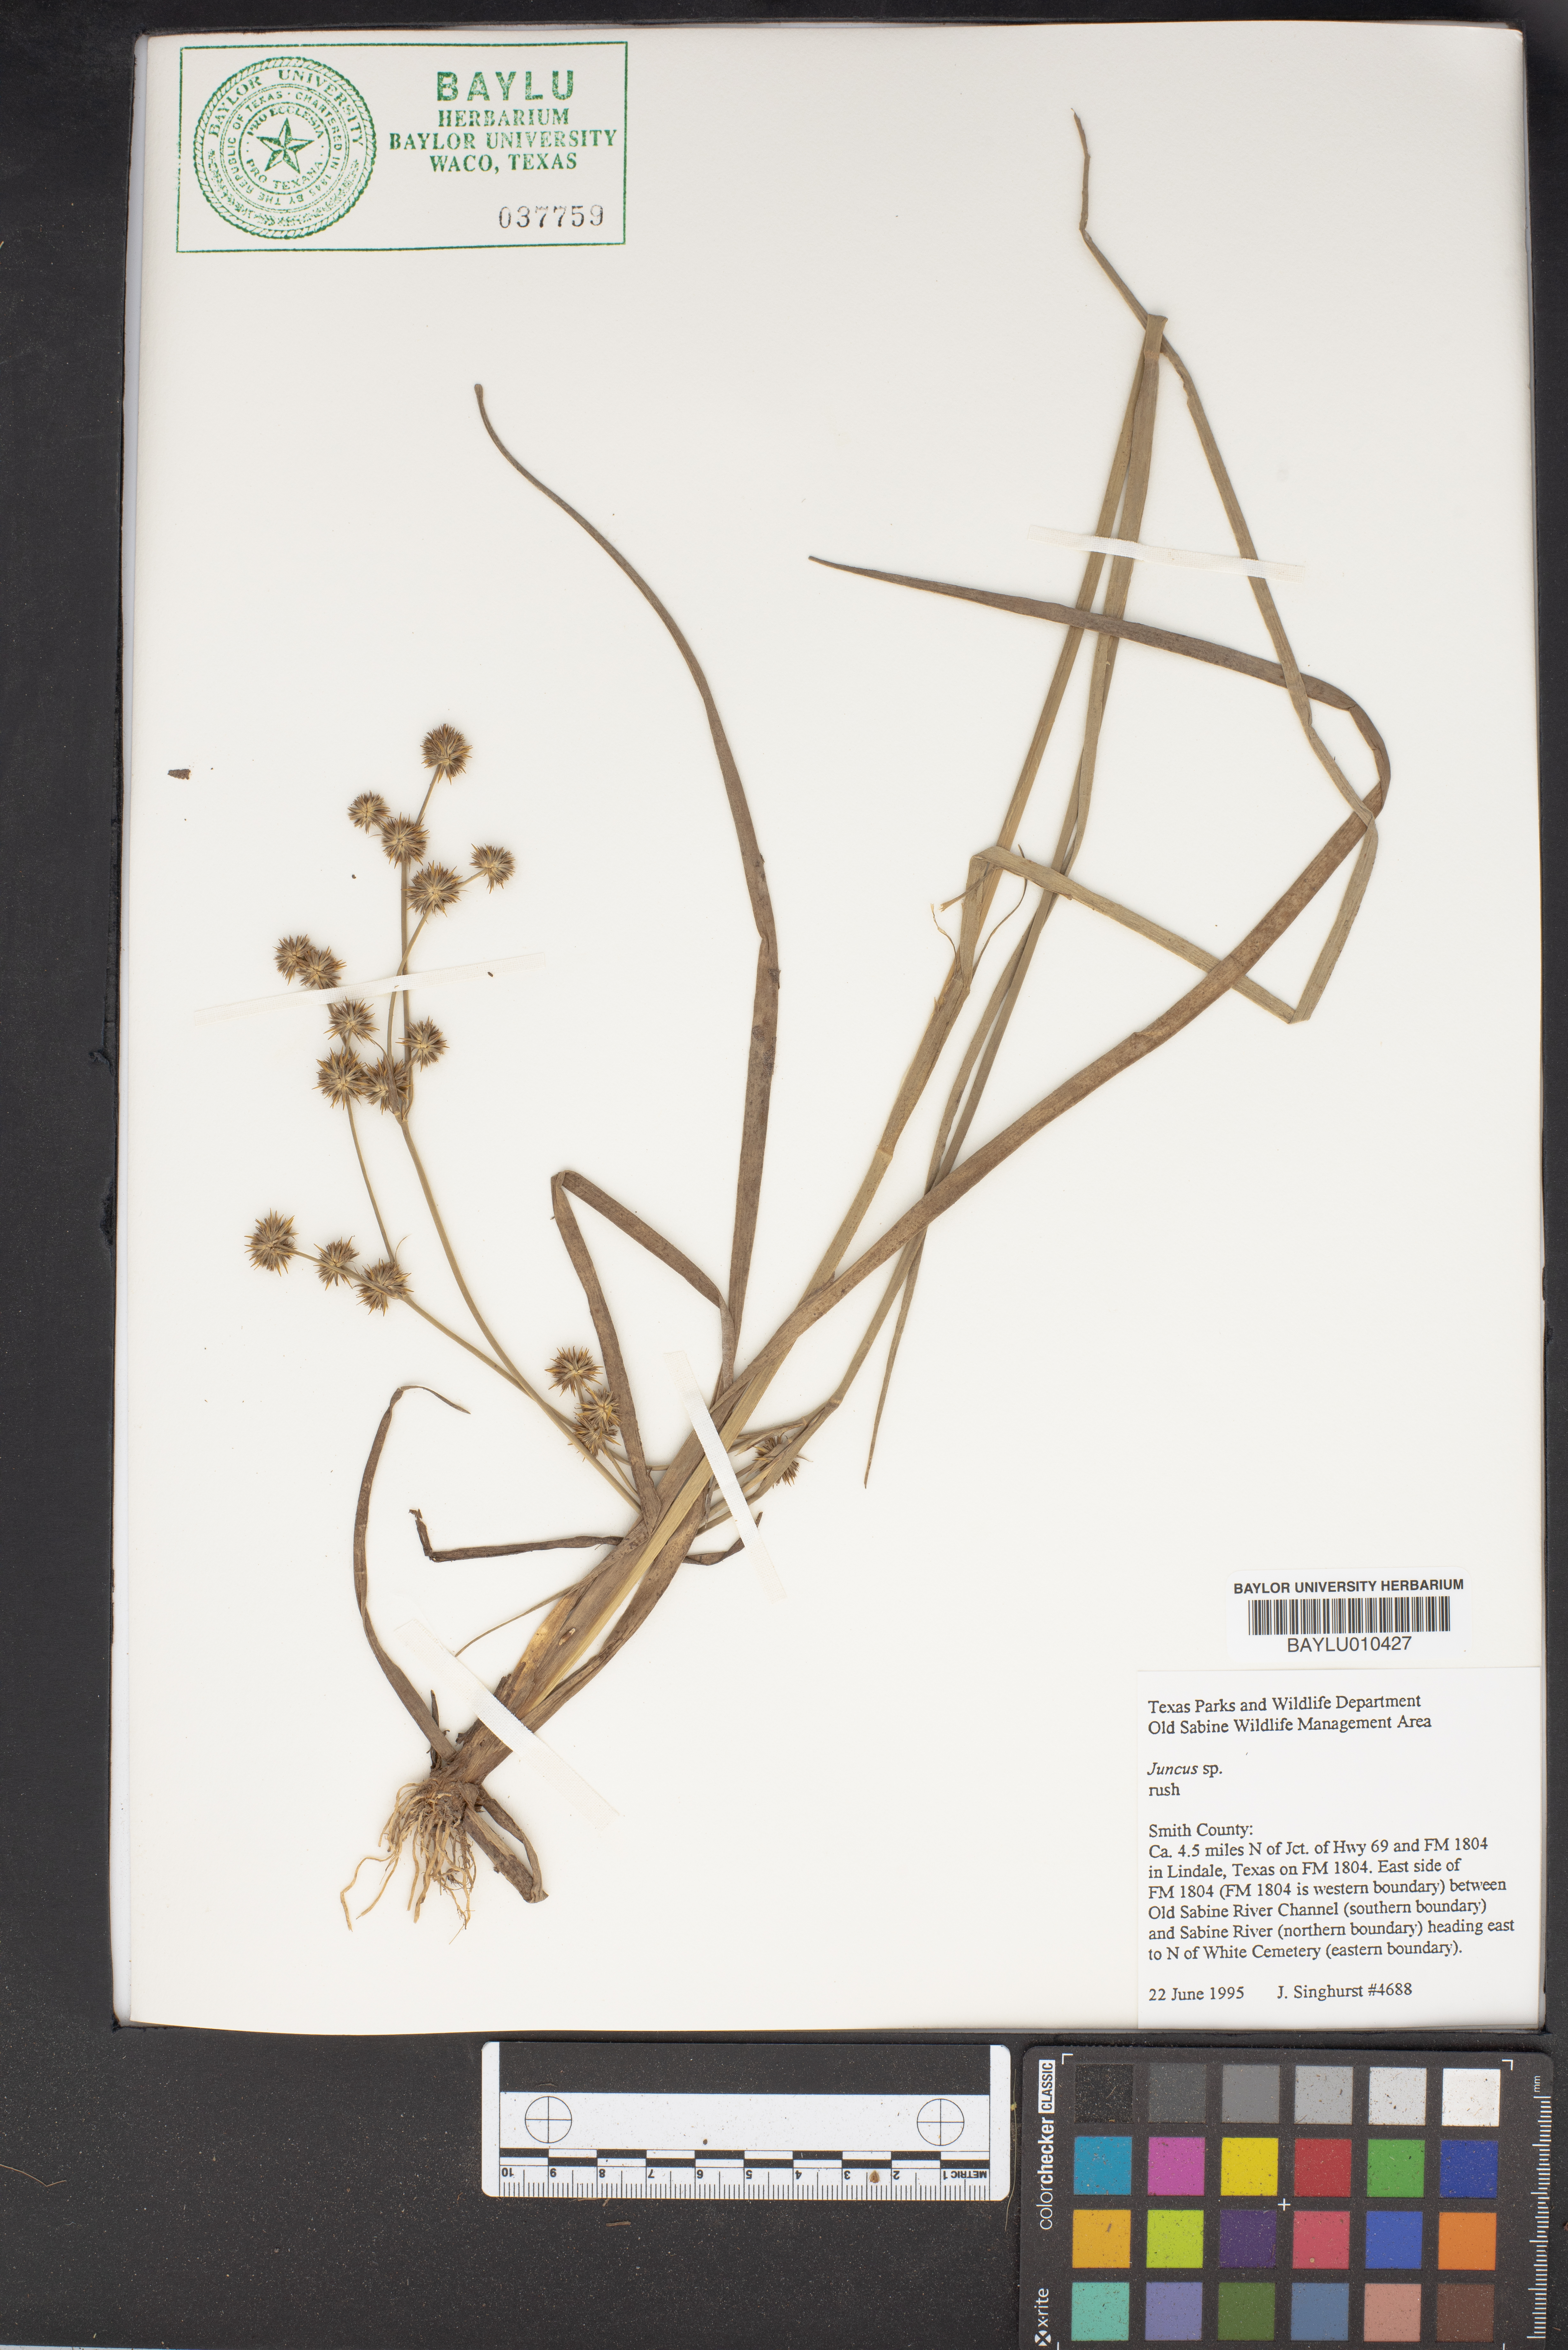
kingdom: Plantae
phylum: Tracheophyta
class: Liliopsida
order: Poales
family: Juncaceae
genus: Juncus
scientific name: Juncus
